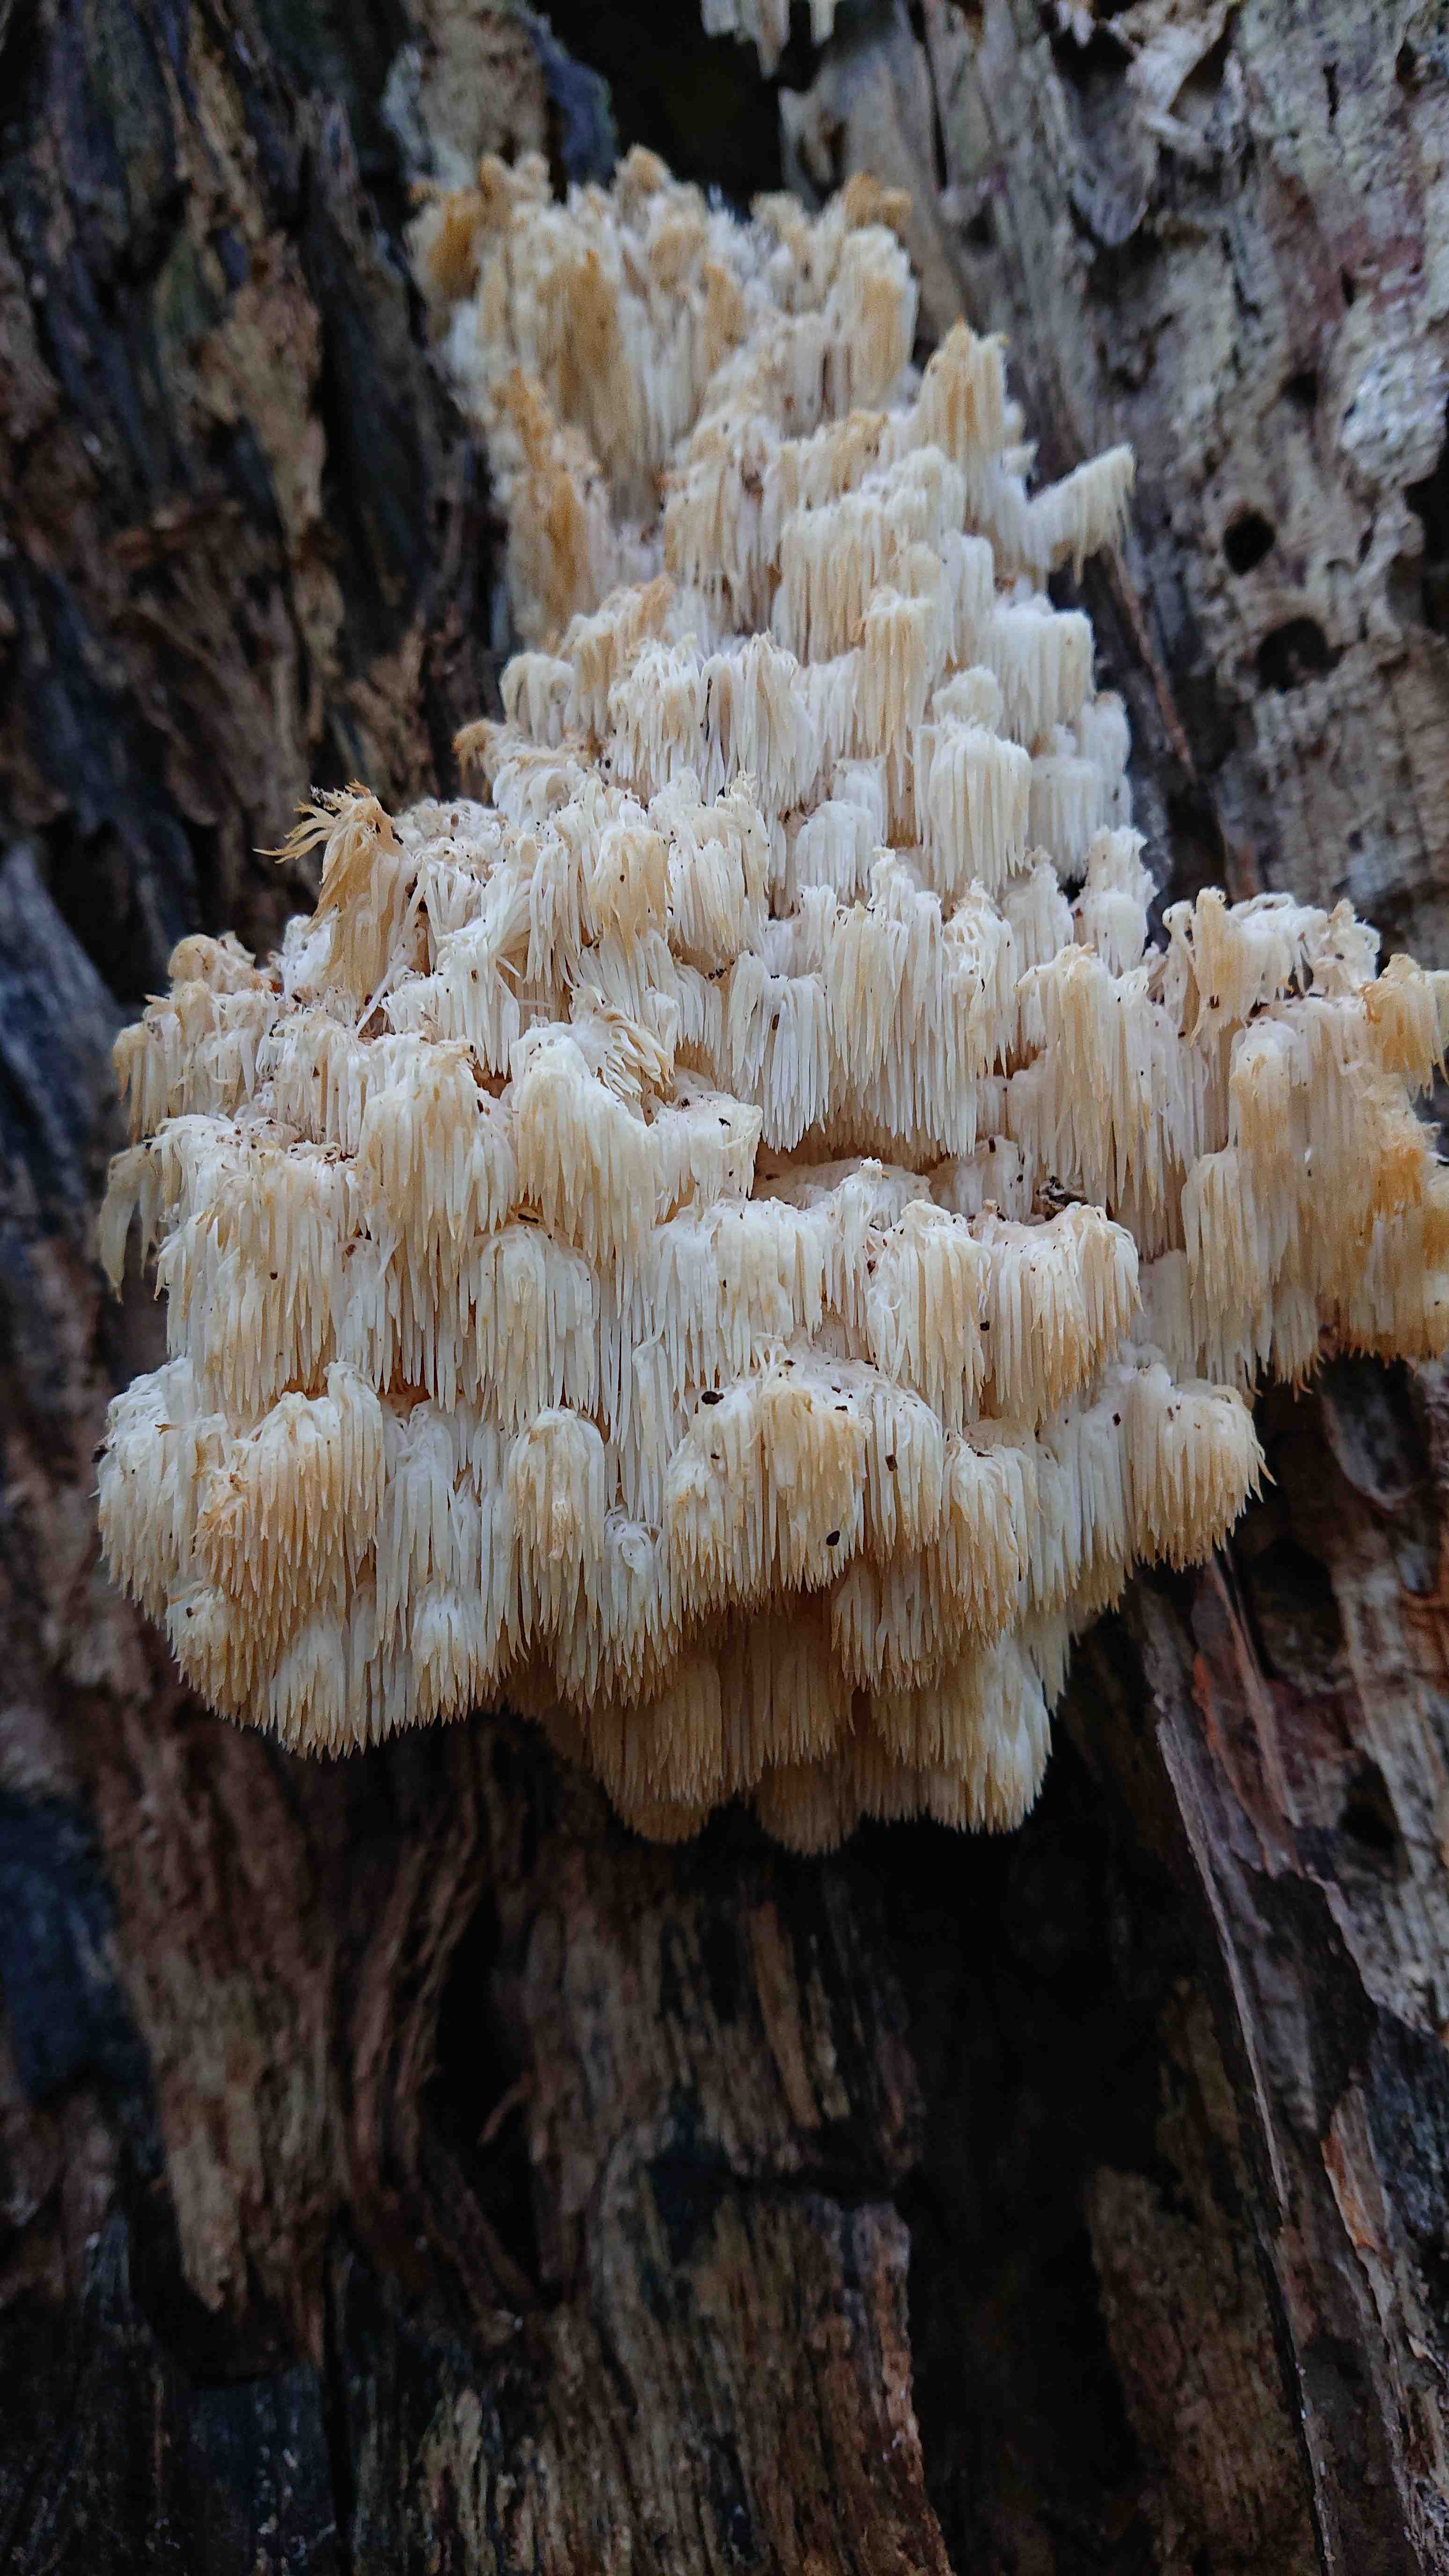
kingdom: Fungi
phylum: Basidiomycota
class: Agaricomycetes
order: Russulales
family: Hericiaceae
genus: Hericium
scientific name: Hericium coralloides
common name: koralpigsvamp
